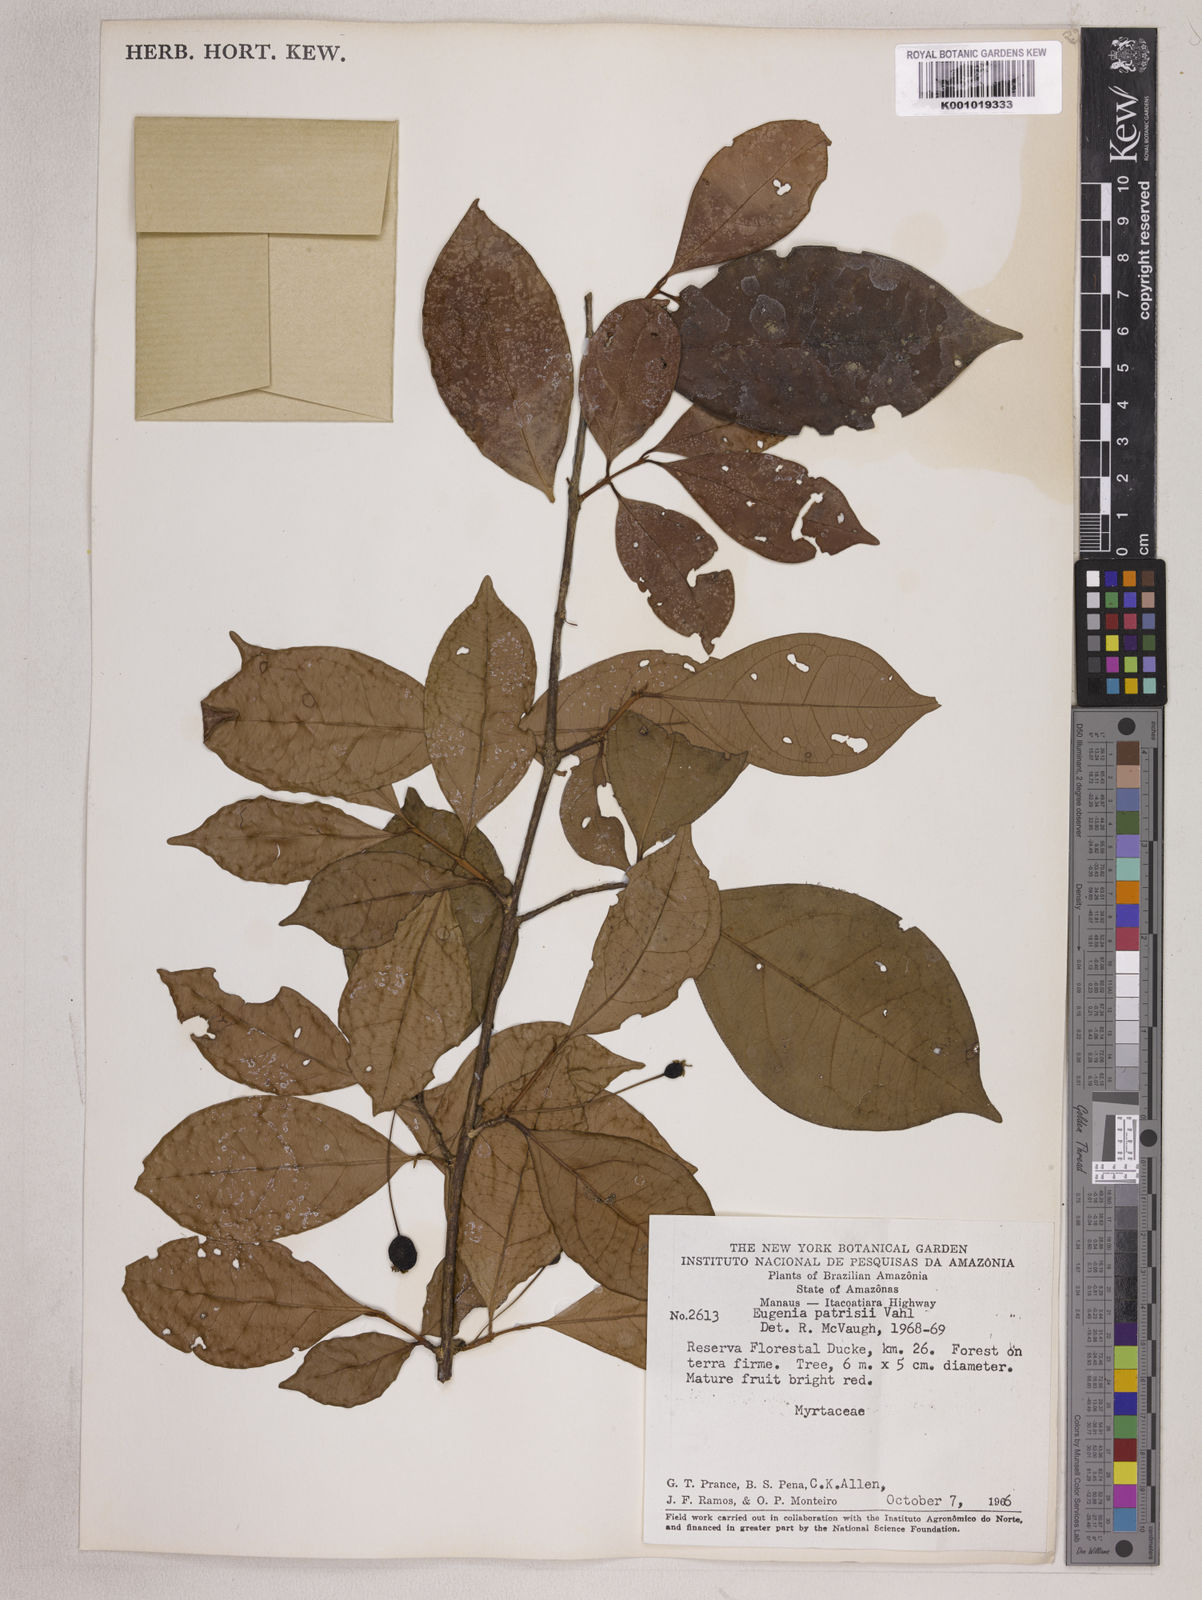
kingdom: Plantae
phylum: Tracheophyta
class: Magnoliopsida
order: Myrtales
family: Myrtaceae
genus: Eugenia
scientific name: Eugenia patrisii
